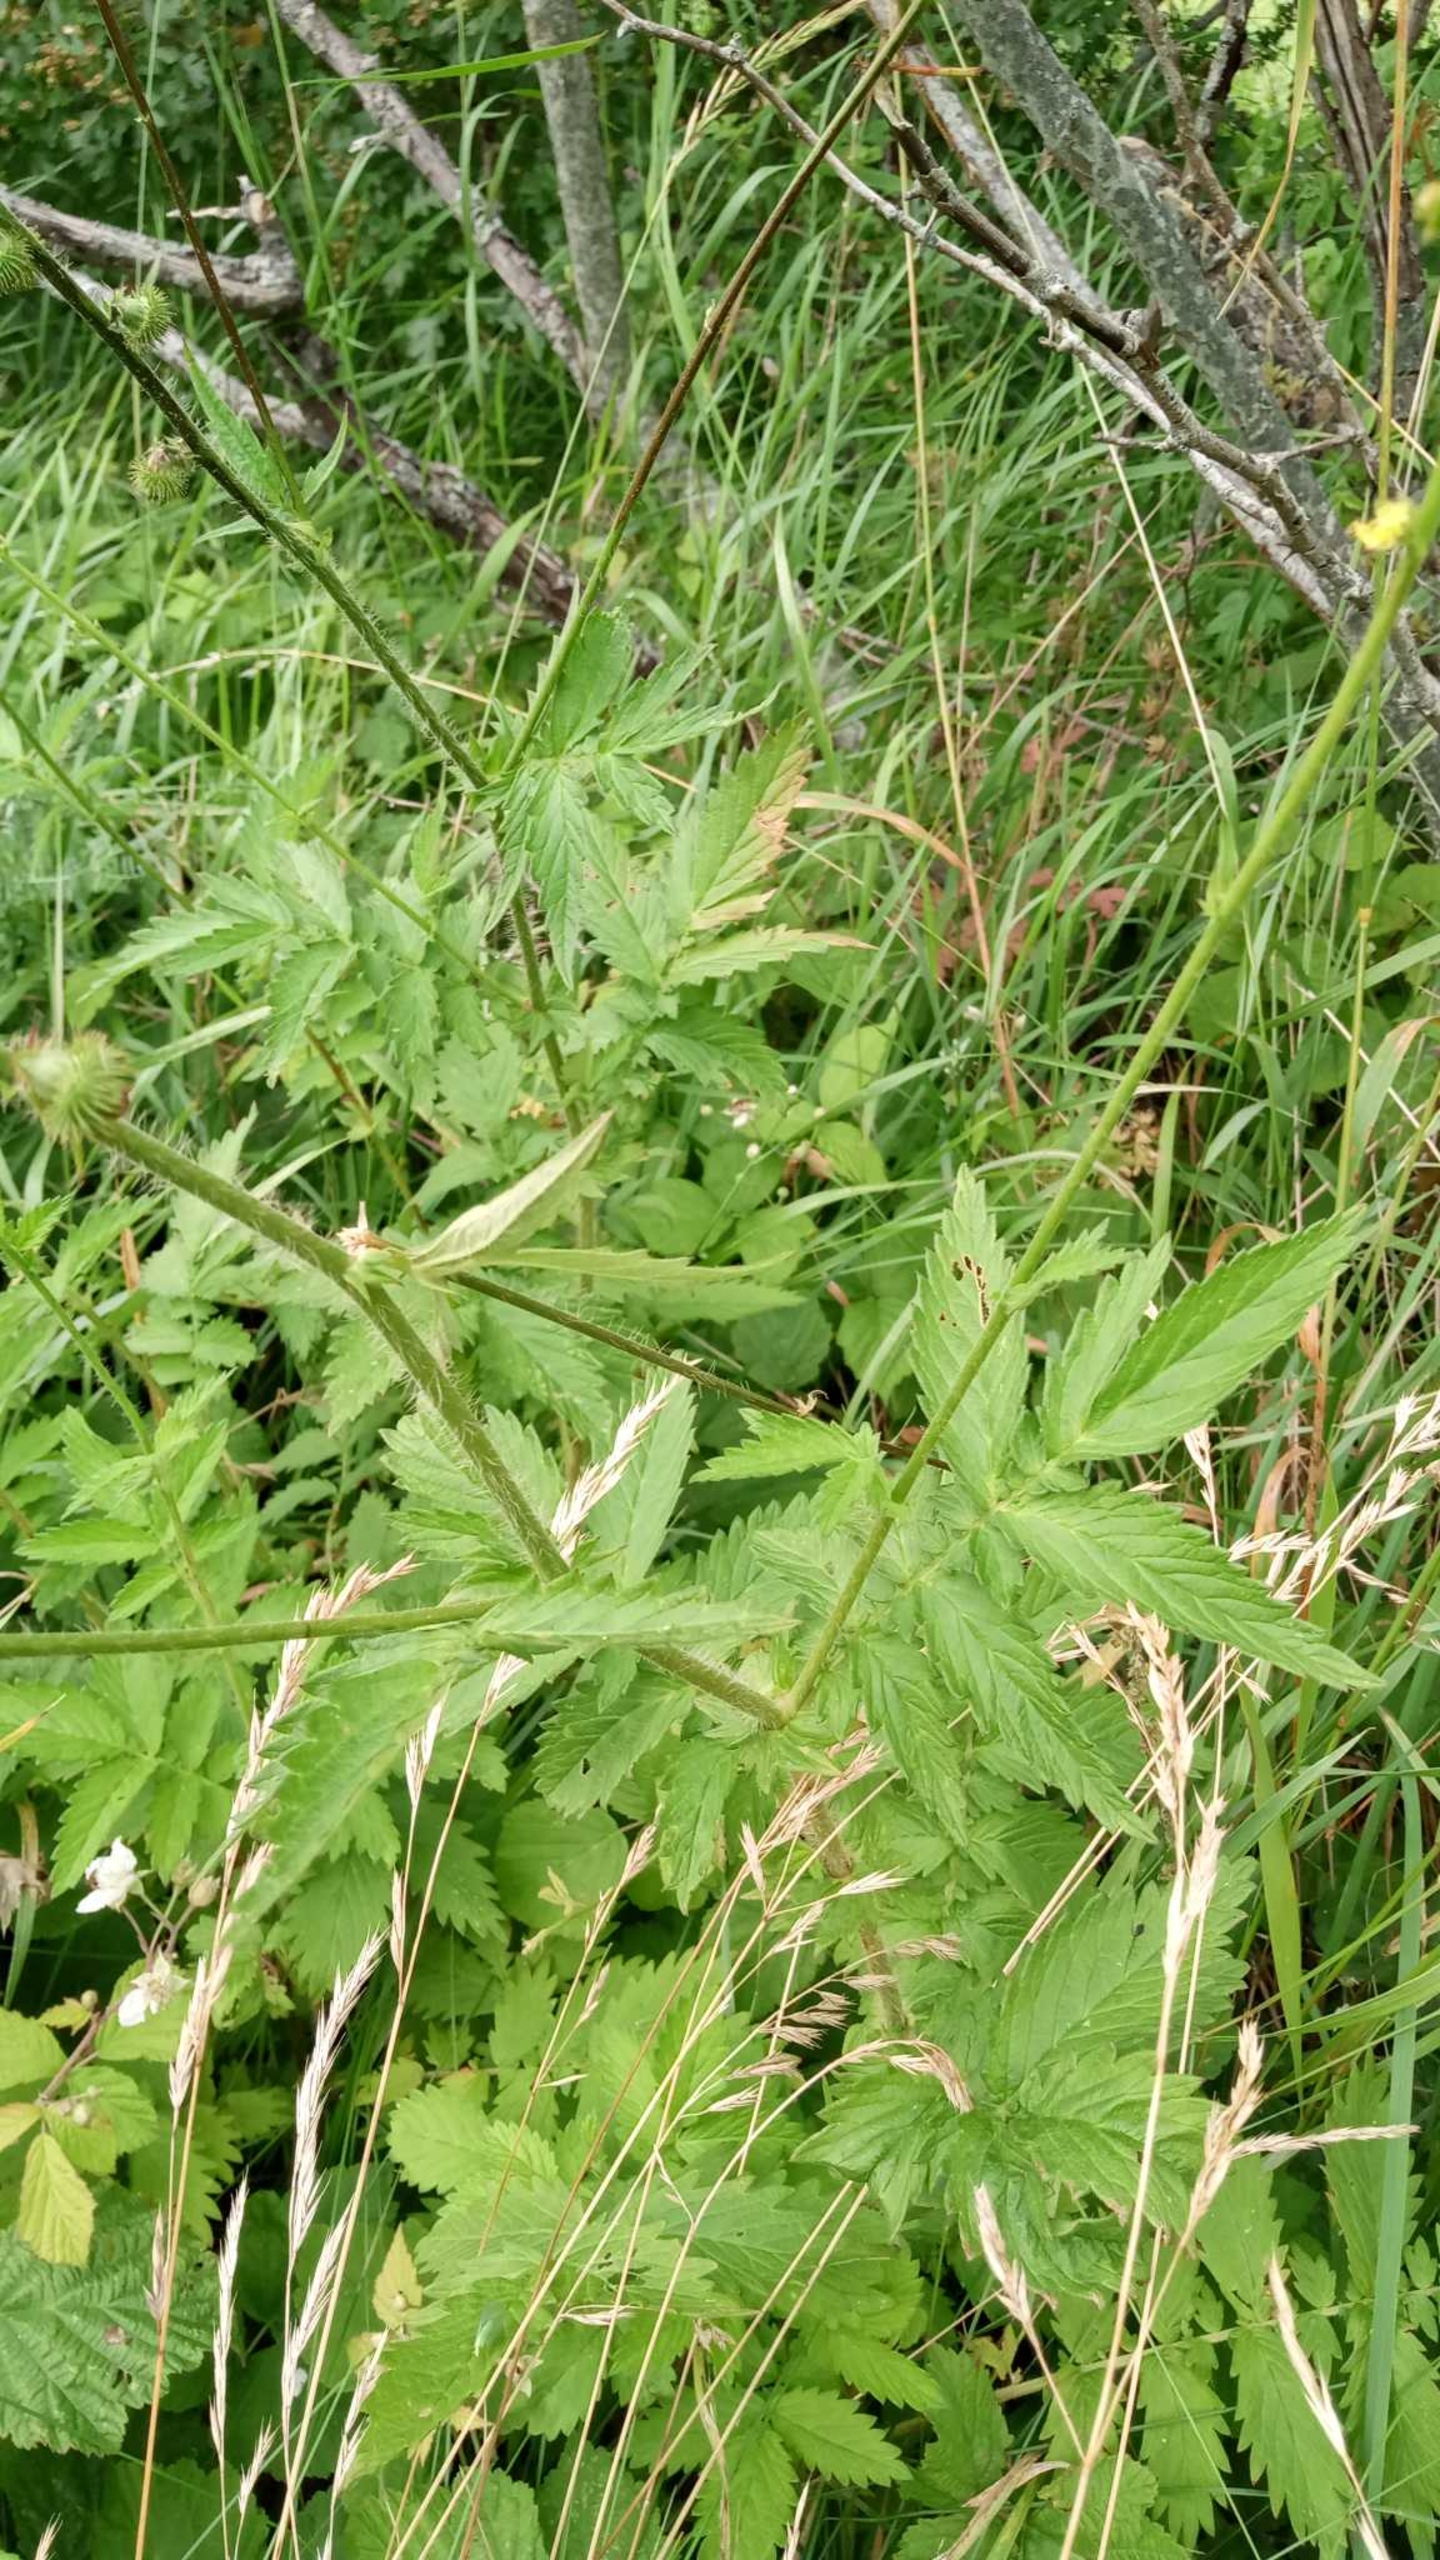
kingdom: Plantae
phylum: Tracheophyta
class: Magnoliopsida
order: Rosales
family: Rosaceae
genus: Agrimonia
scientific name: Agrimonia procera
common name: Vellugtende agermåne
